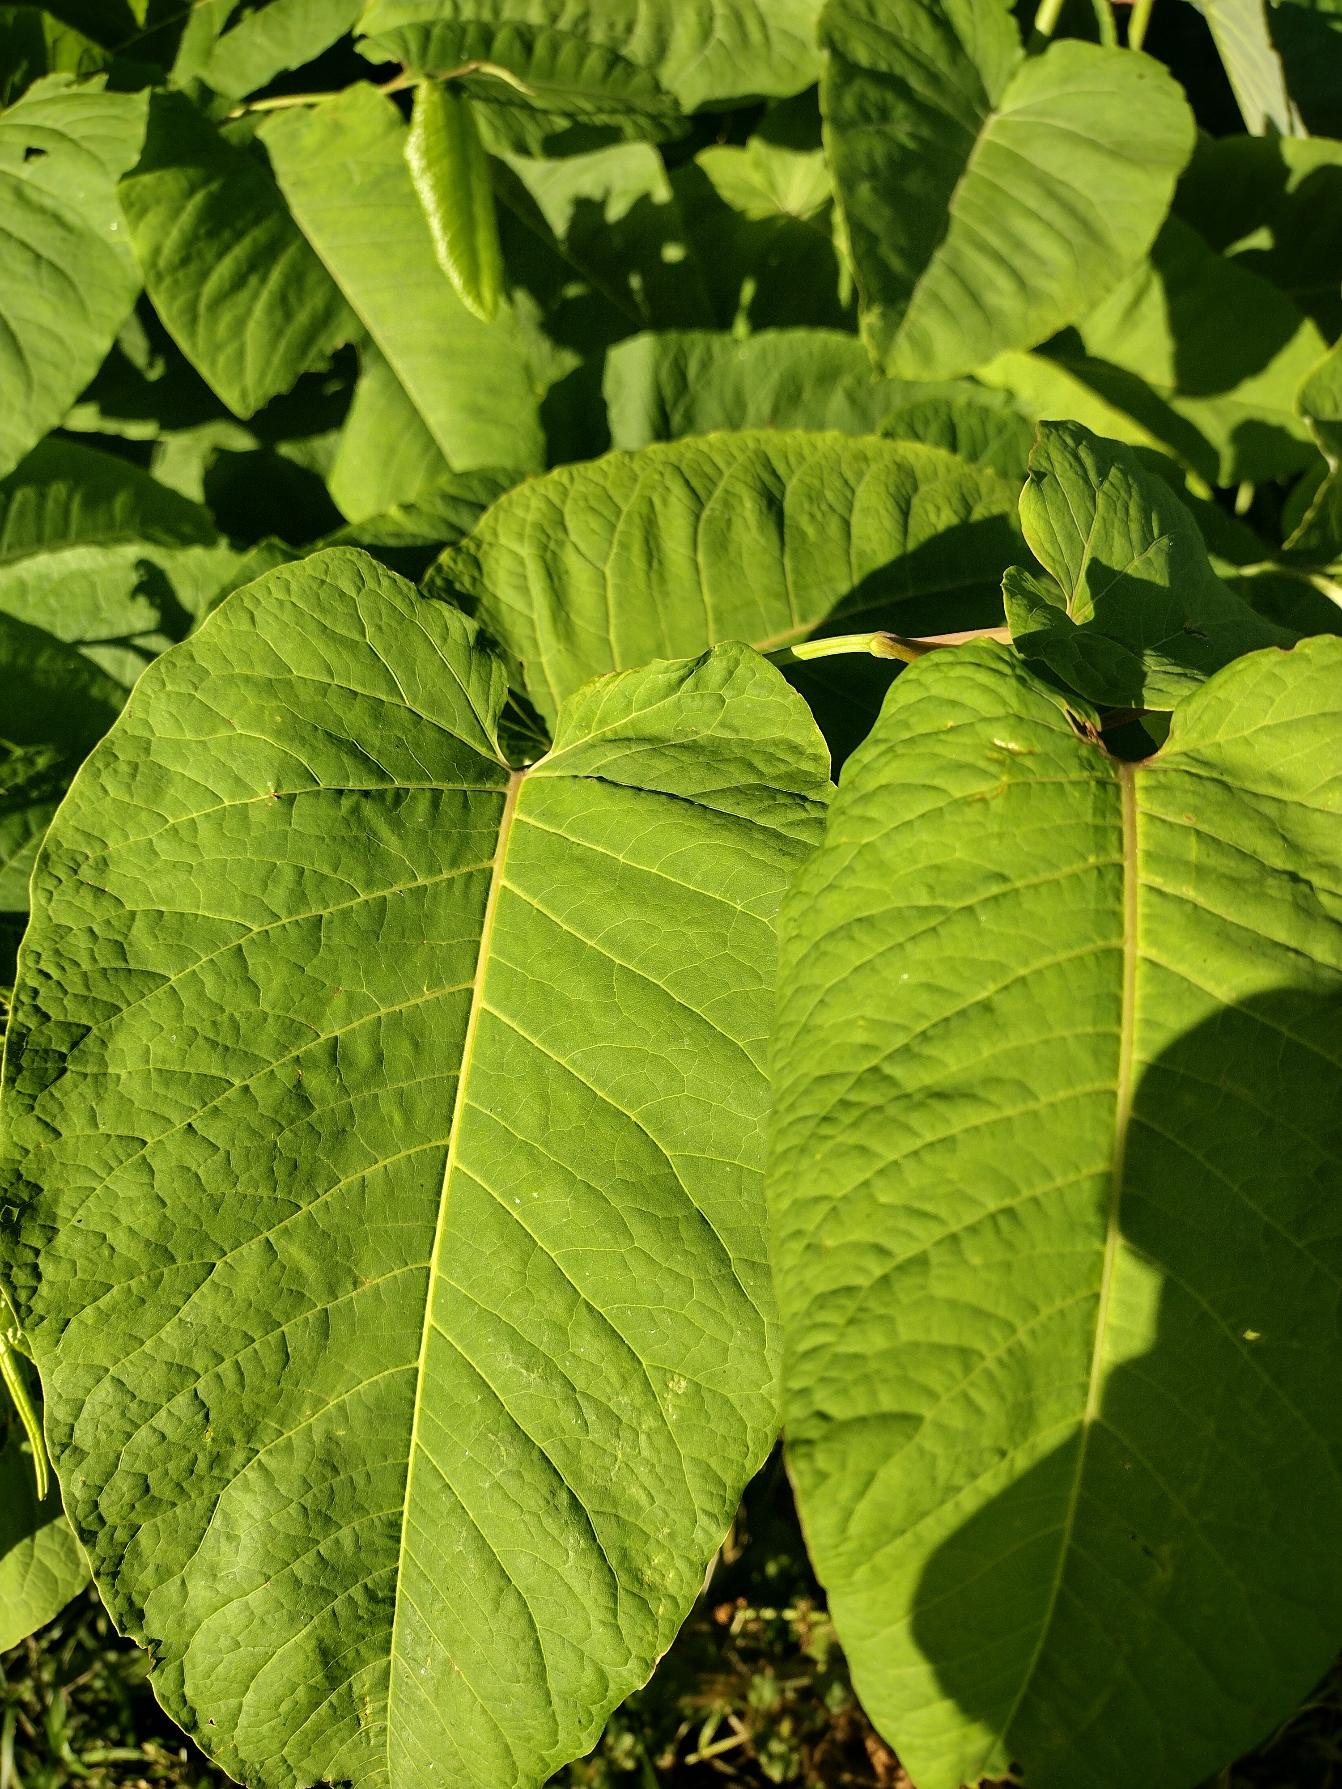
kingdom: Plantae
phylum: Tracheophyta
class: Magnoliopsida
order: Caryophyllales
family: Polygonaceae
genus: Reynoutria
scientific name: Reynoutria sachalinensis
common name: Kæmpe-pileurt
